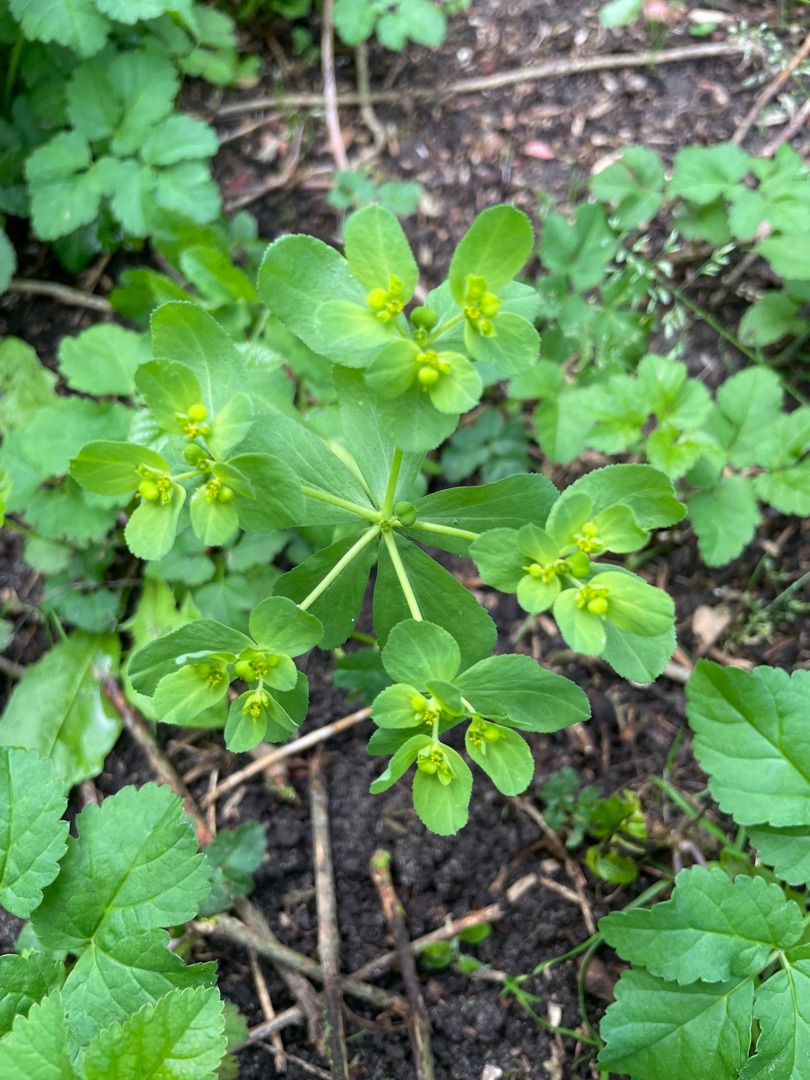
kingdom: Plantae
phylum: Tracheophyta
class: Magnoliopsida
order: Malpighiales
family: Euphorbiaceae
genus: Euphorbia
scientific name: Euphorbia helioscopia
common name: Skærm-vortemælk
